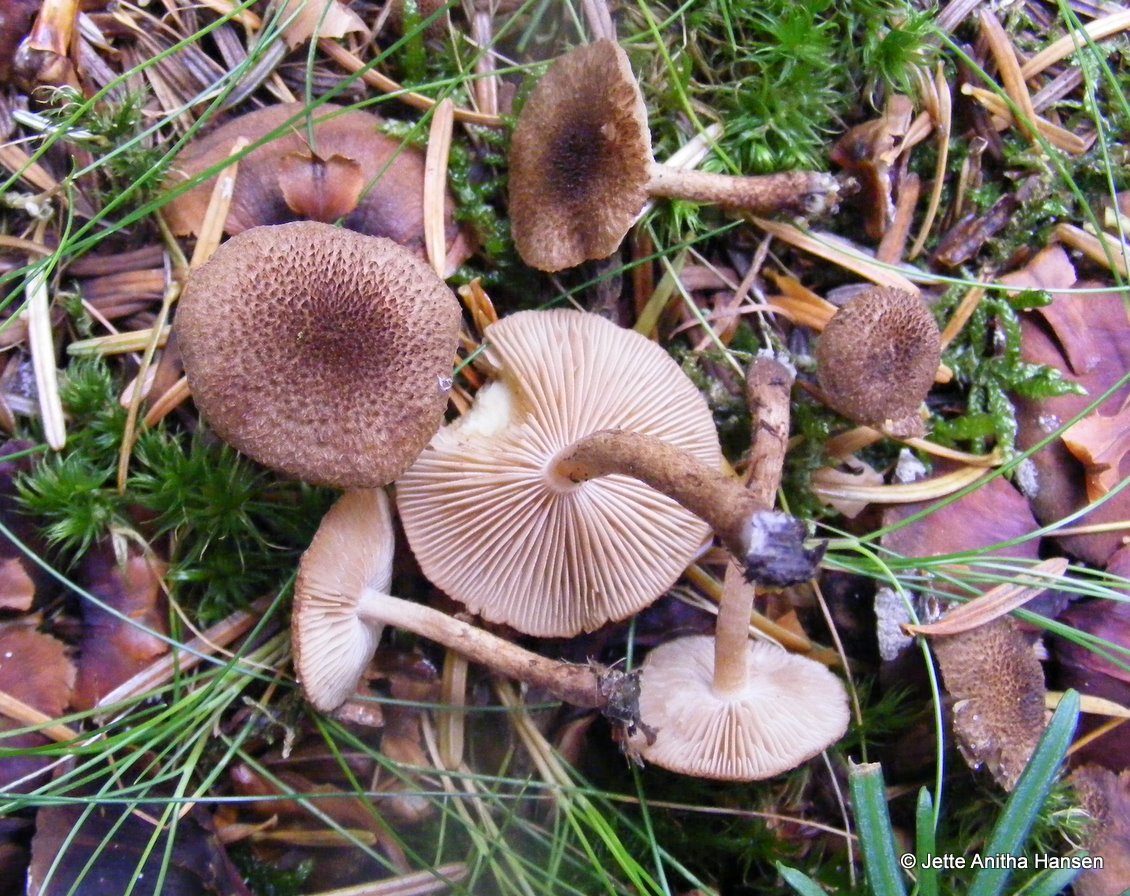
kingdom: Fungi
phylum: Basidiomycota
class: Agaricomycetes
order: Agaricales
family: Inocybaceae
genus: Inocybe
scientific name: Inocybe lanuginosa
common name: uldskællet trævlhat
